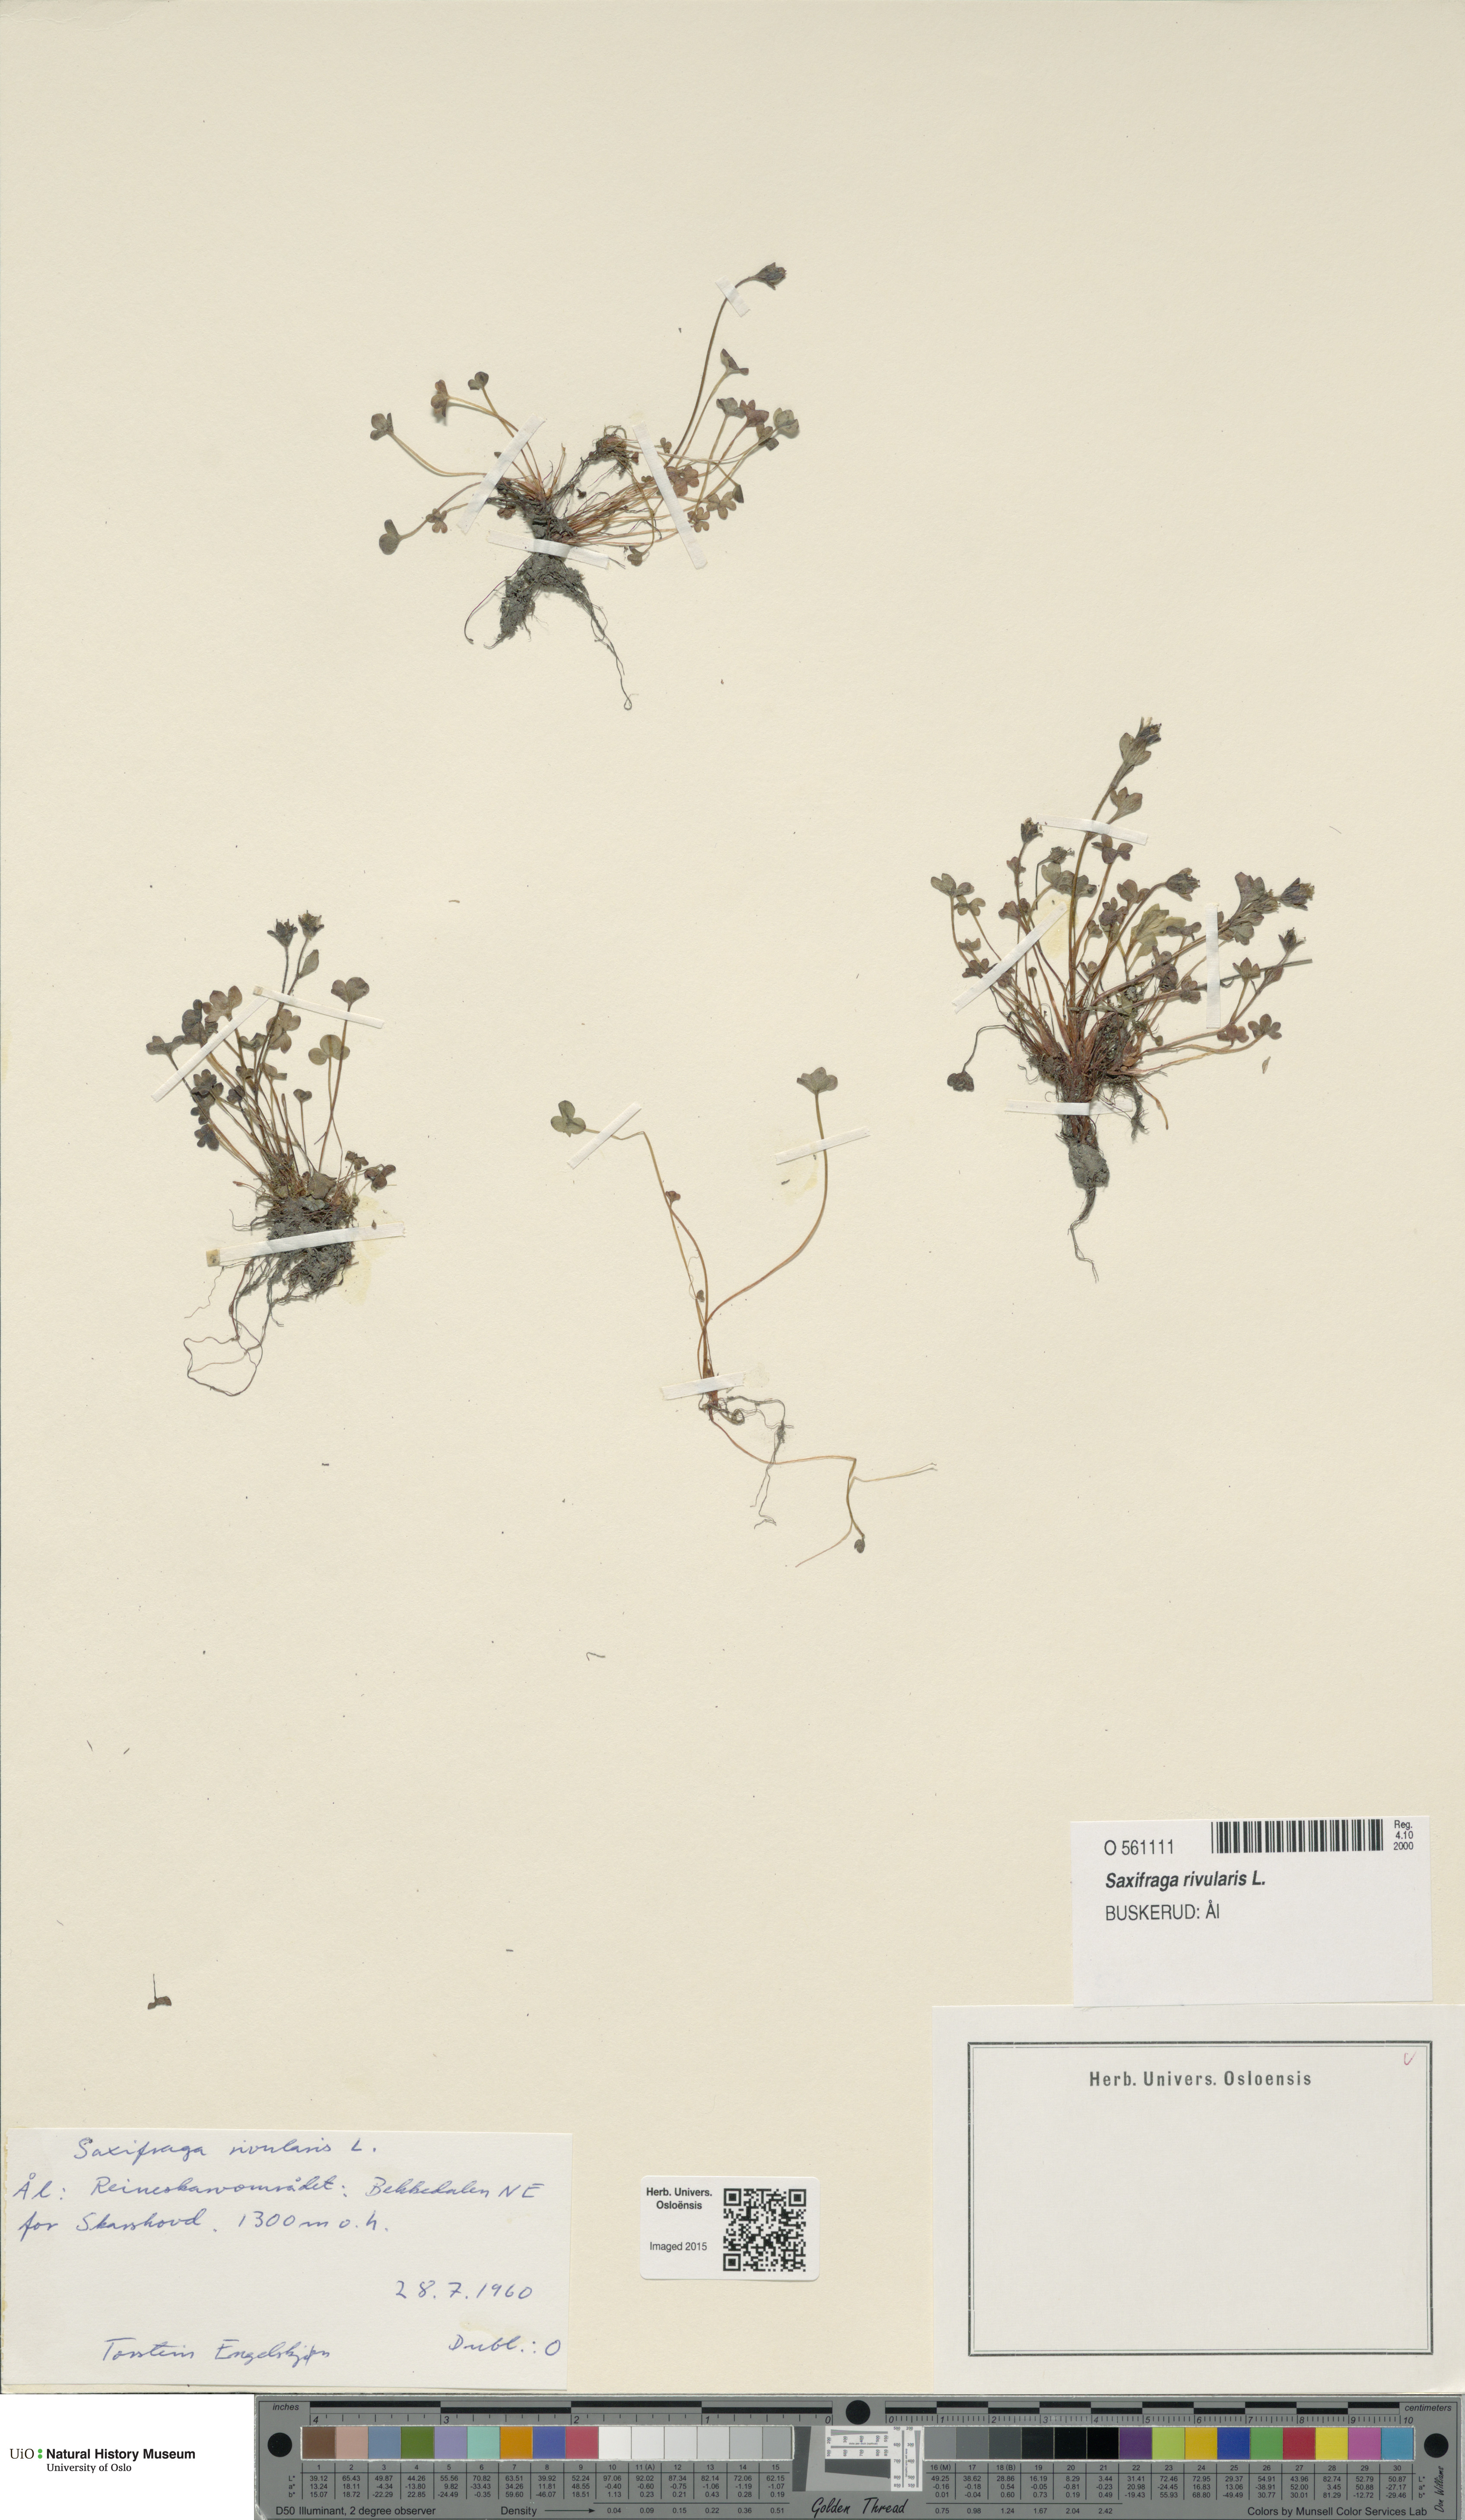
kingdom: Plantae
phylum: Tracheophyta
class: Magnoliopsida
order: Saxifragales
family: Saxifragaceae
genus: Saxifraga
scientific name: Saxifraga rivularis
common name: Highland saxifrage
